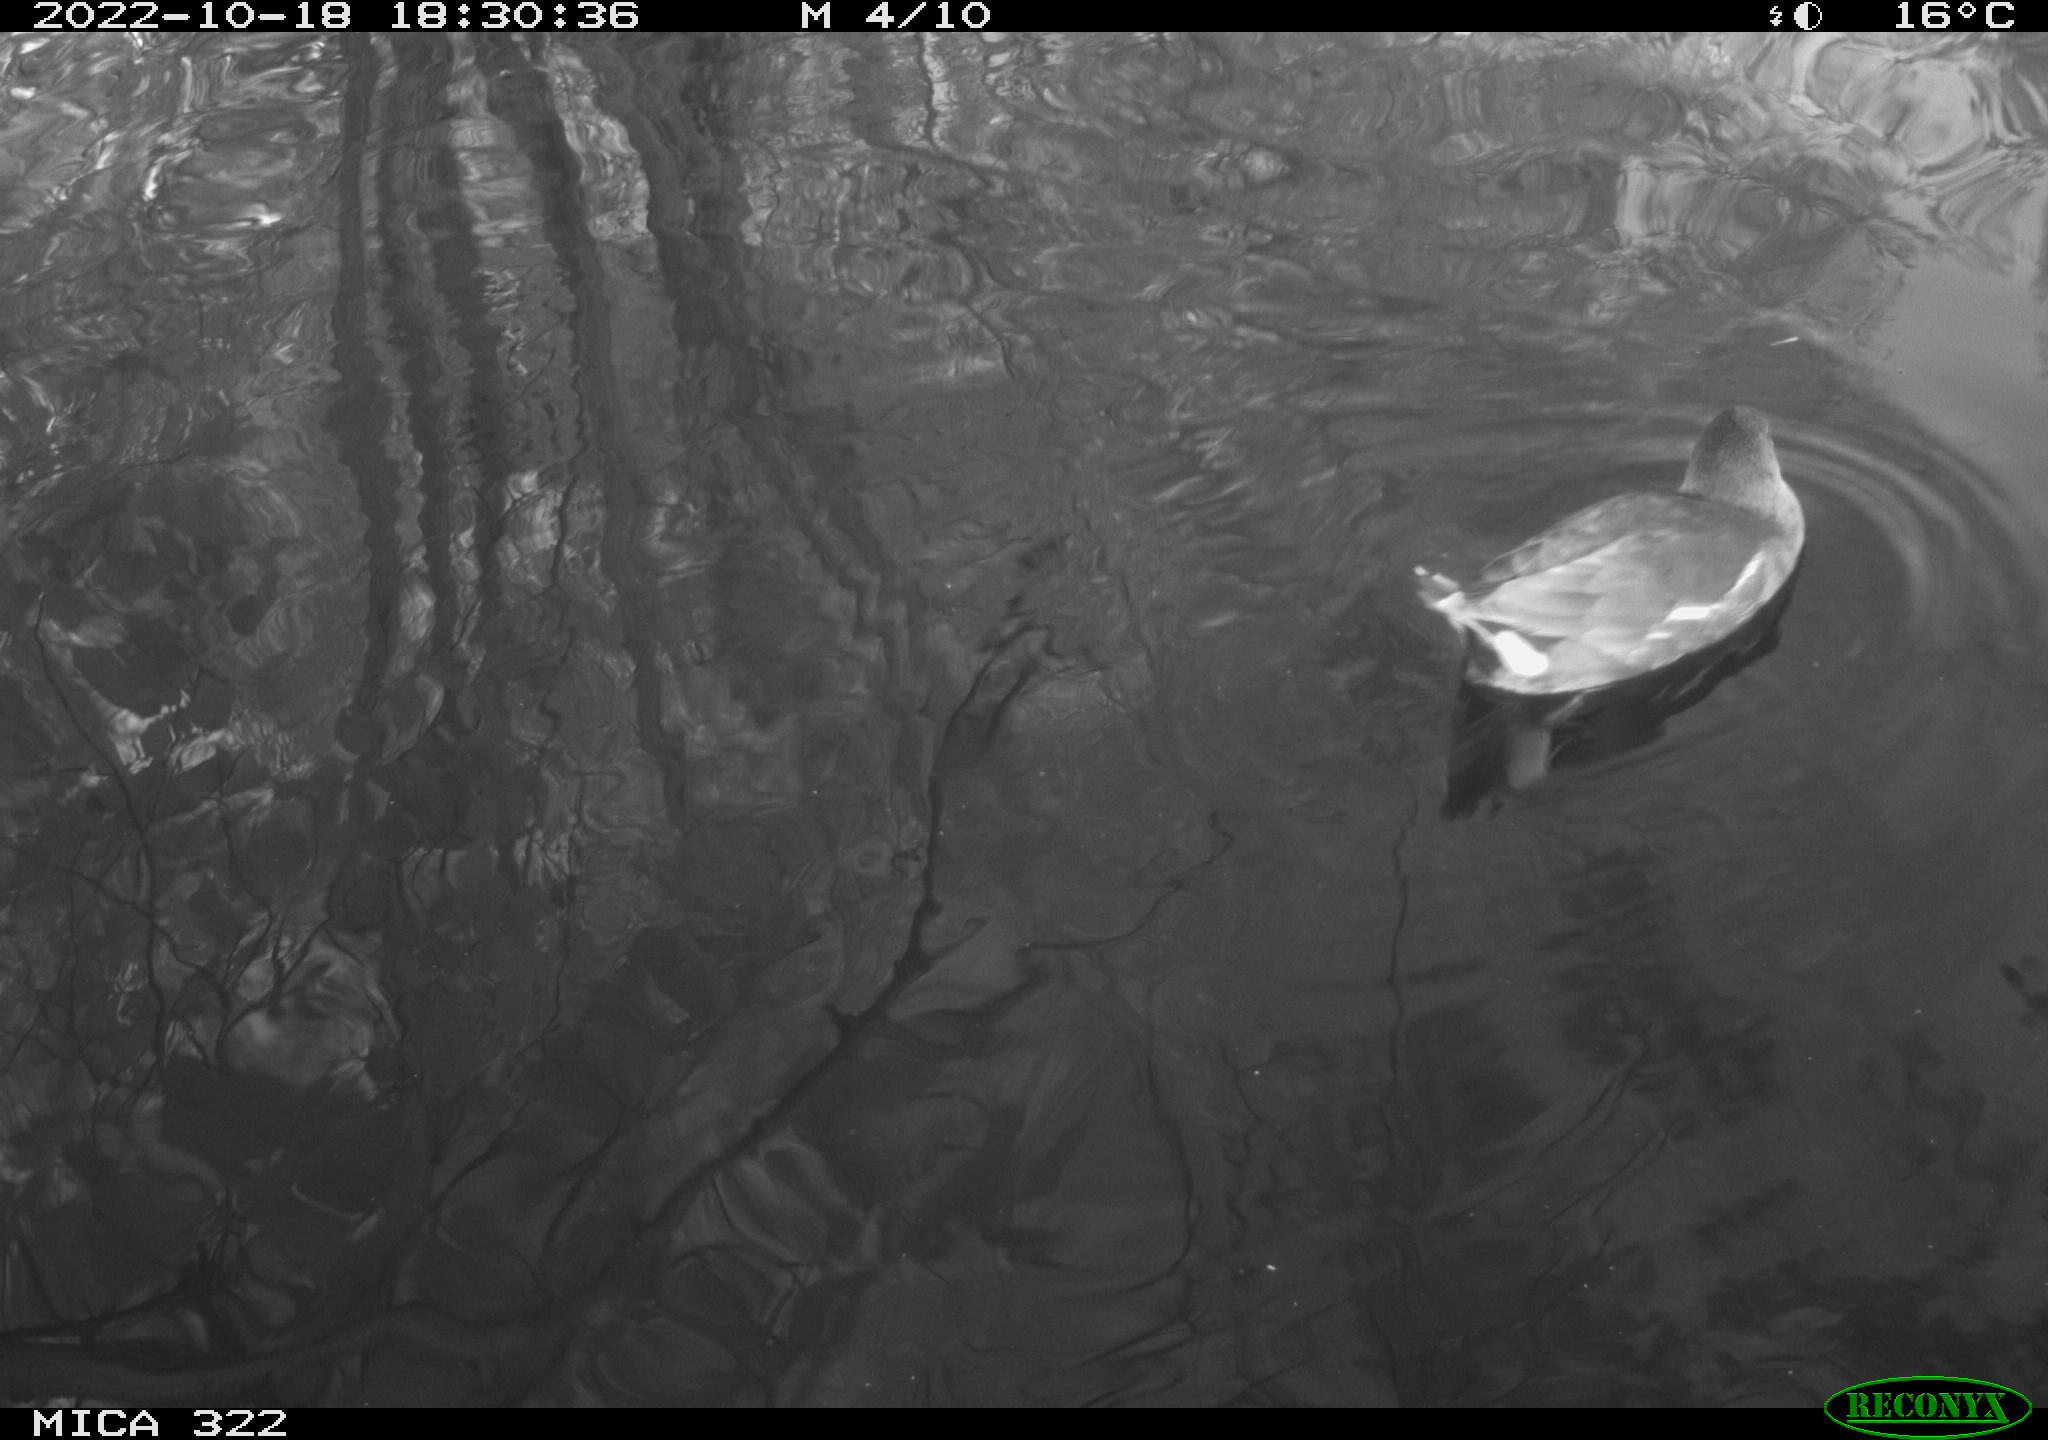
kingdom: Animalia
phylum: Chordata
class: Aves
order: Gruiformes
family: Rallidae
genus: Gallinula
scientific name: Gallinula chloropus
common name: Common moorhen
